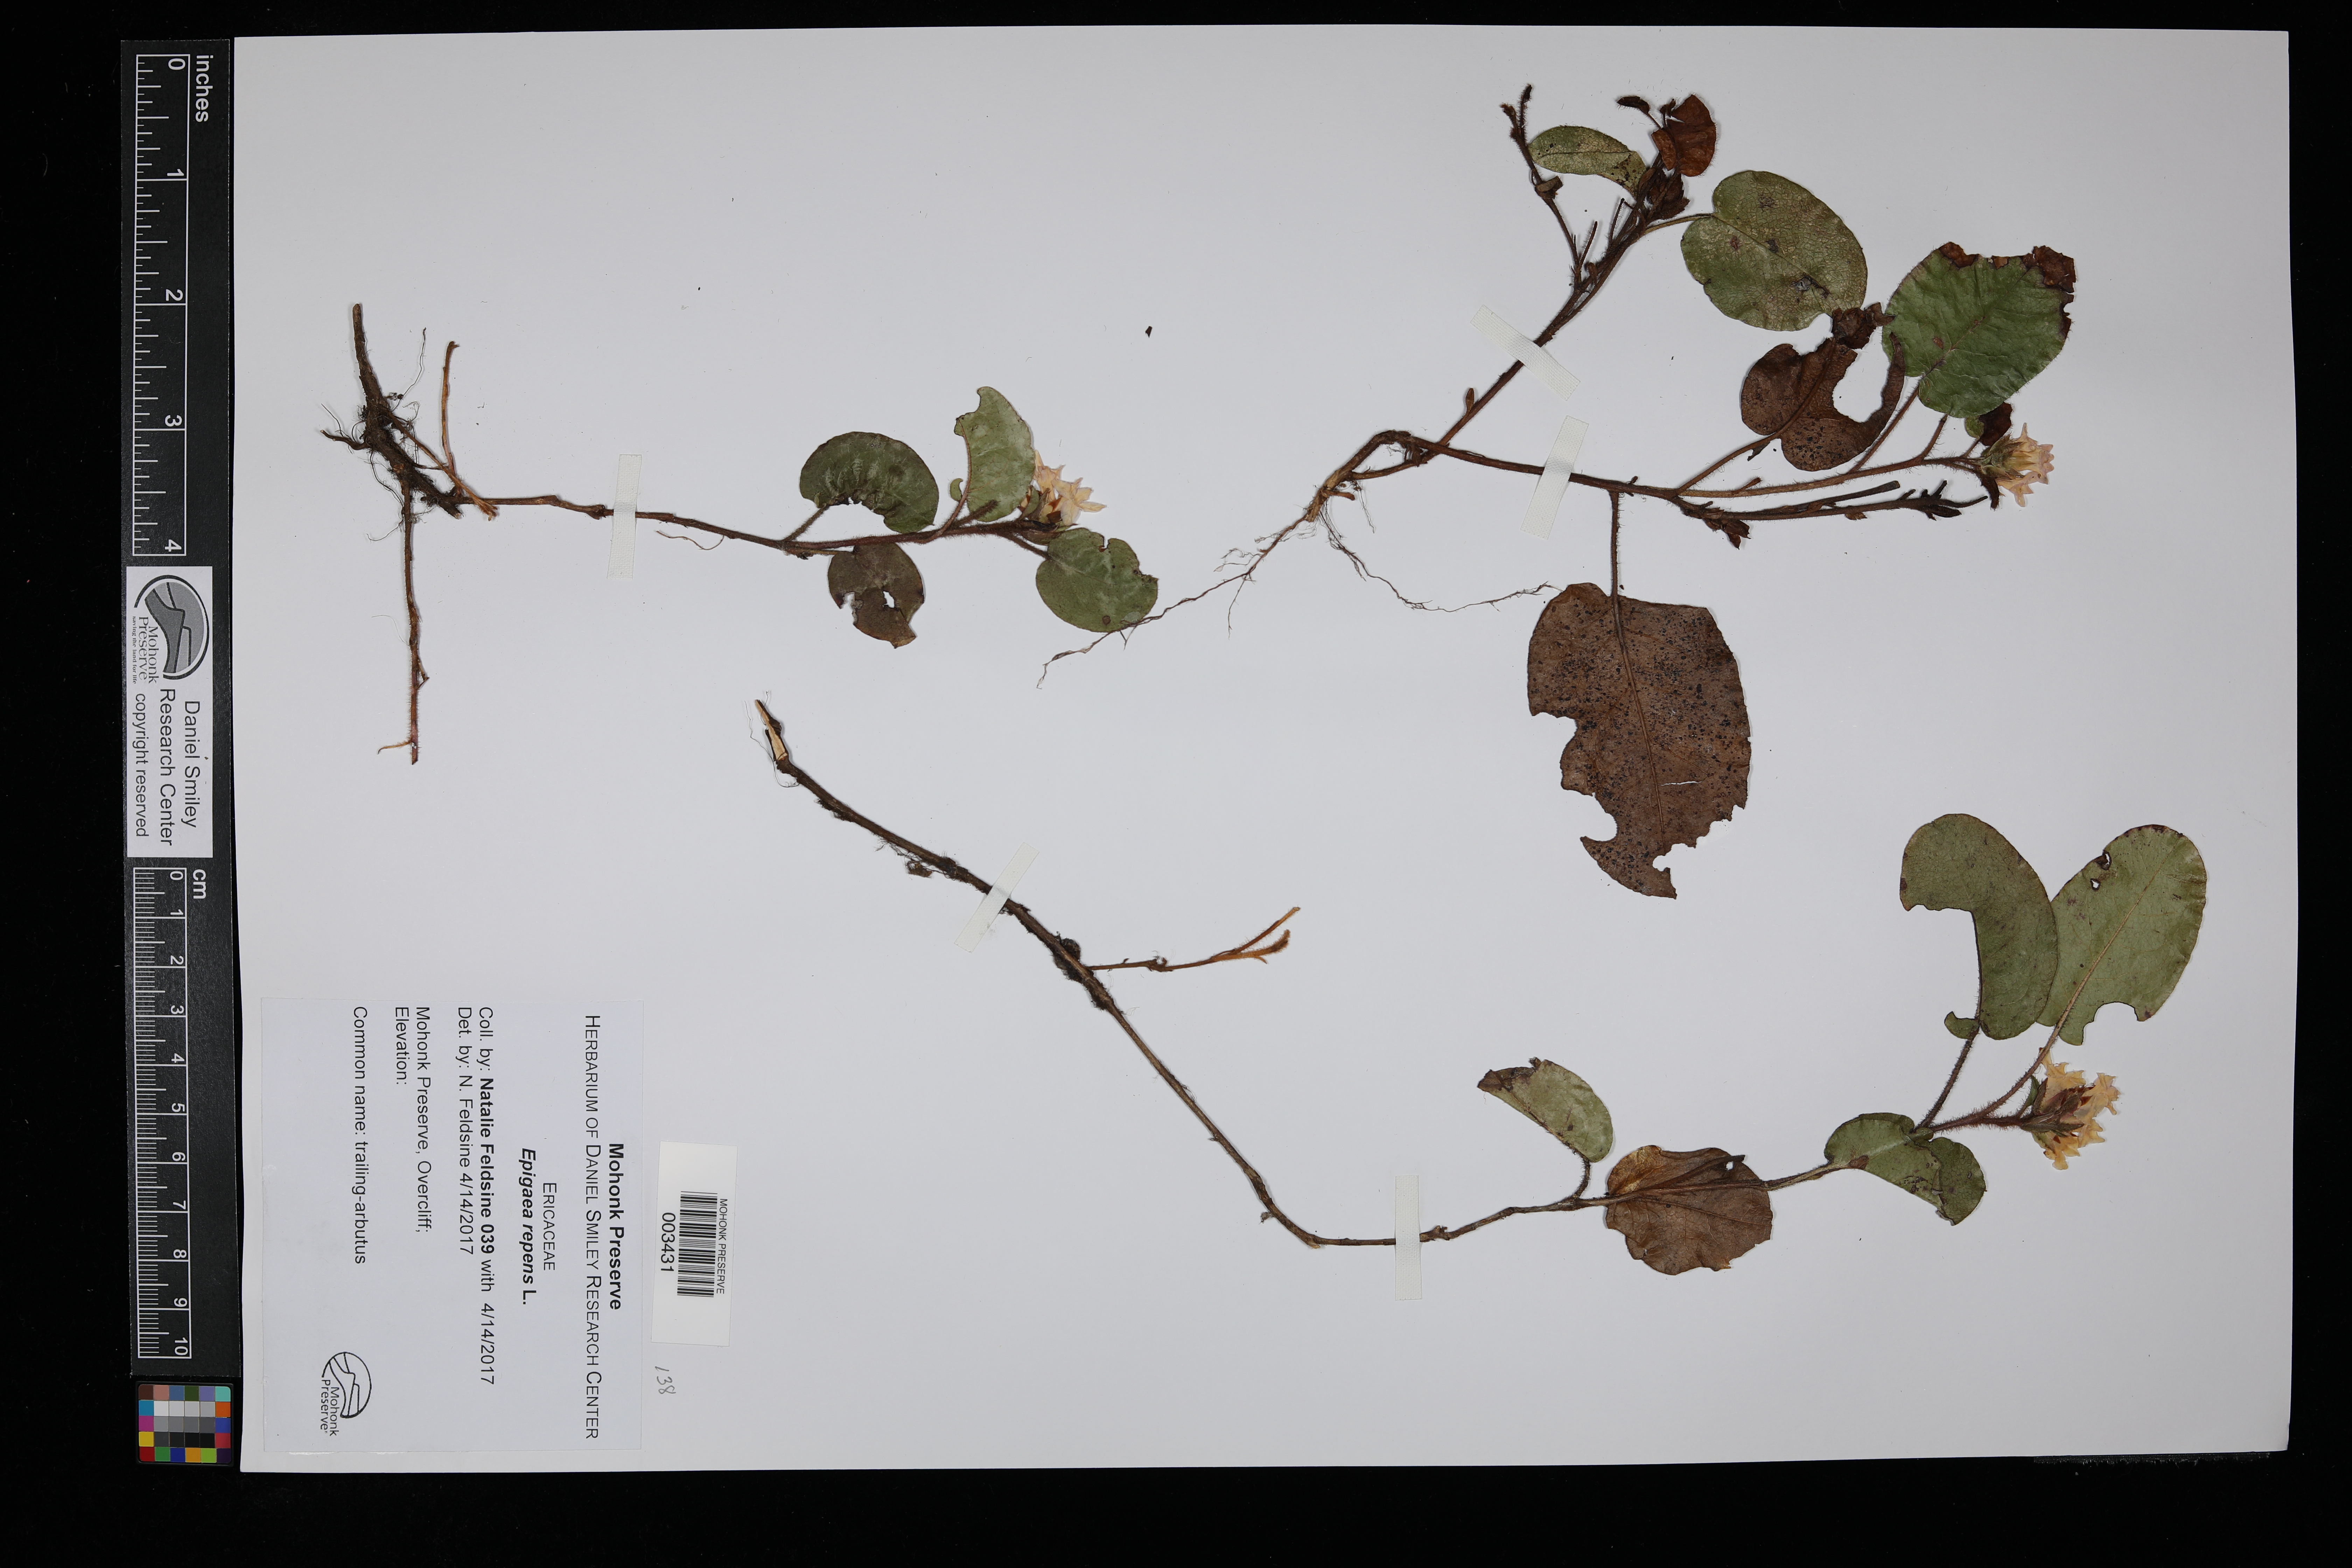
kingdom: Plantae
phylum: Tracheophyta
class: Magnoliopsida
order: Ericales
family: Ericaceae
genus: Epigaea
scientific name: Epigaea repens
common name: Gravelroot
